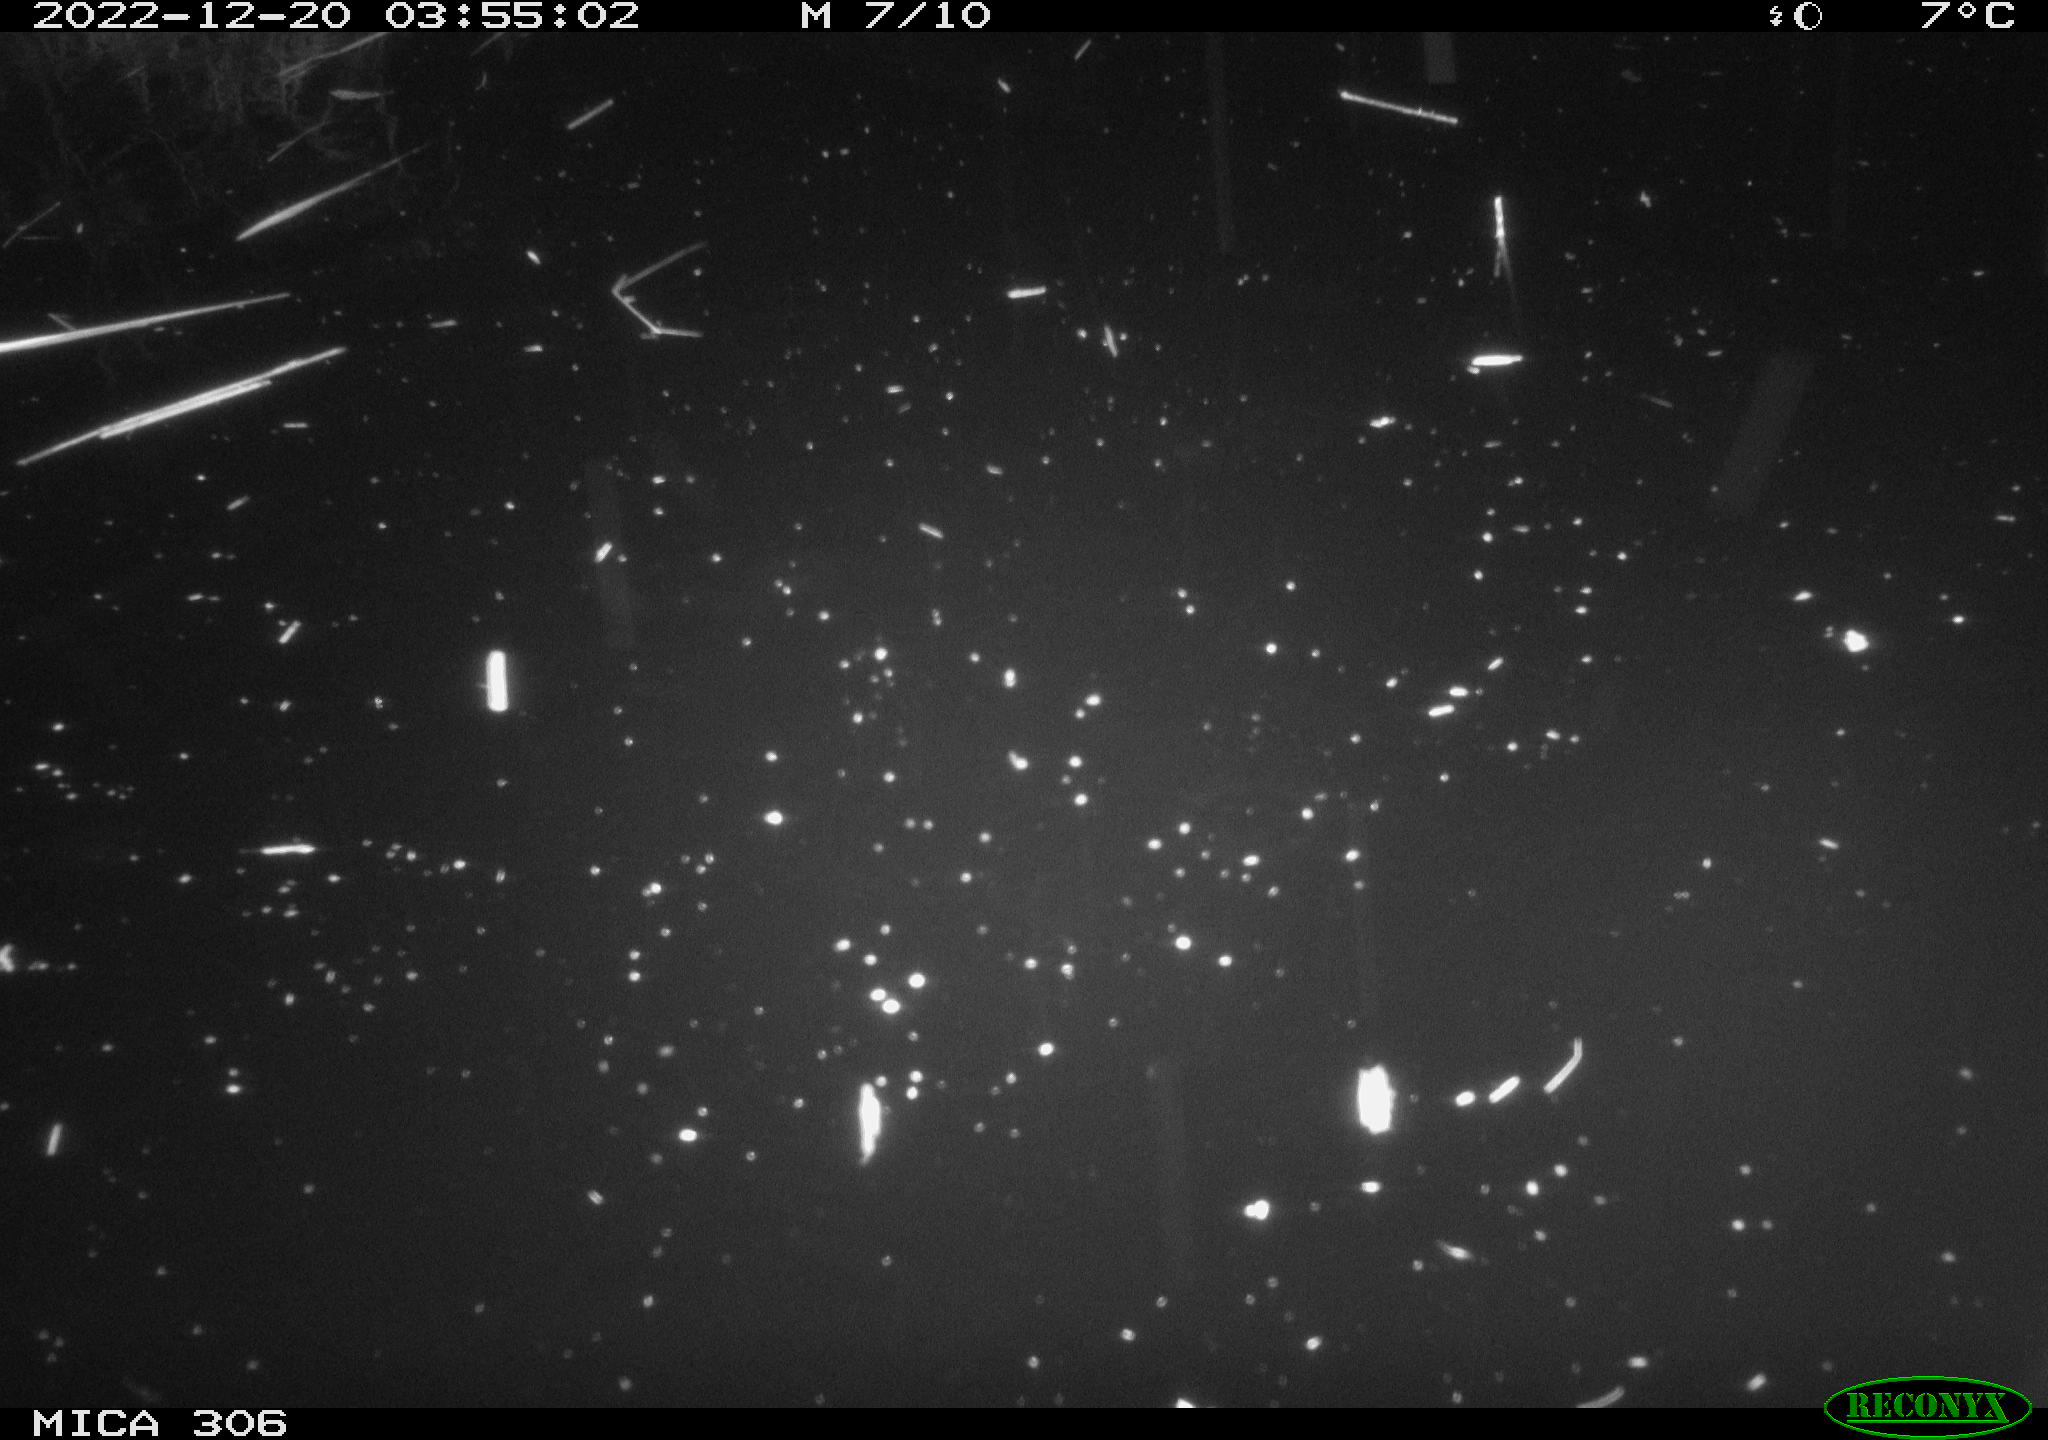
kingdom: Animalia
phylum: Chordata
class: Mammalia
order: Rodentia
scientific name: Rodentia
